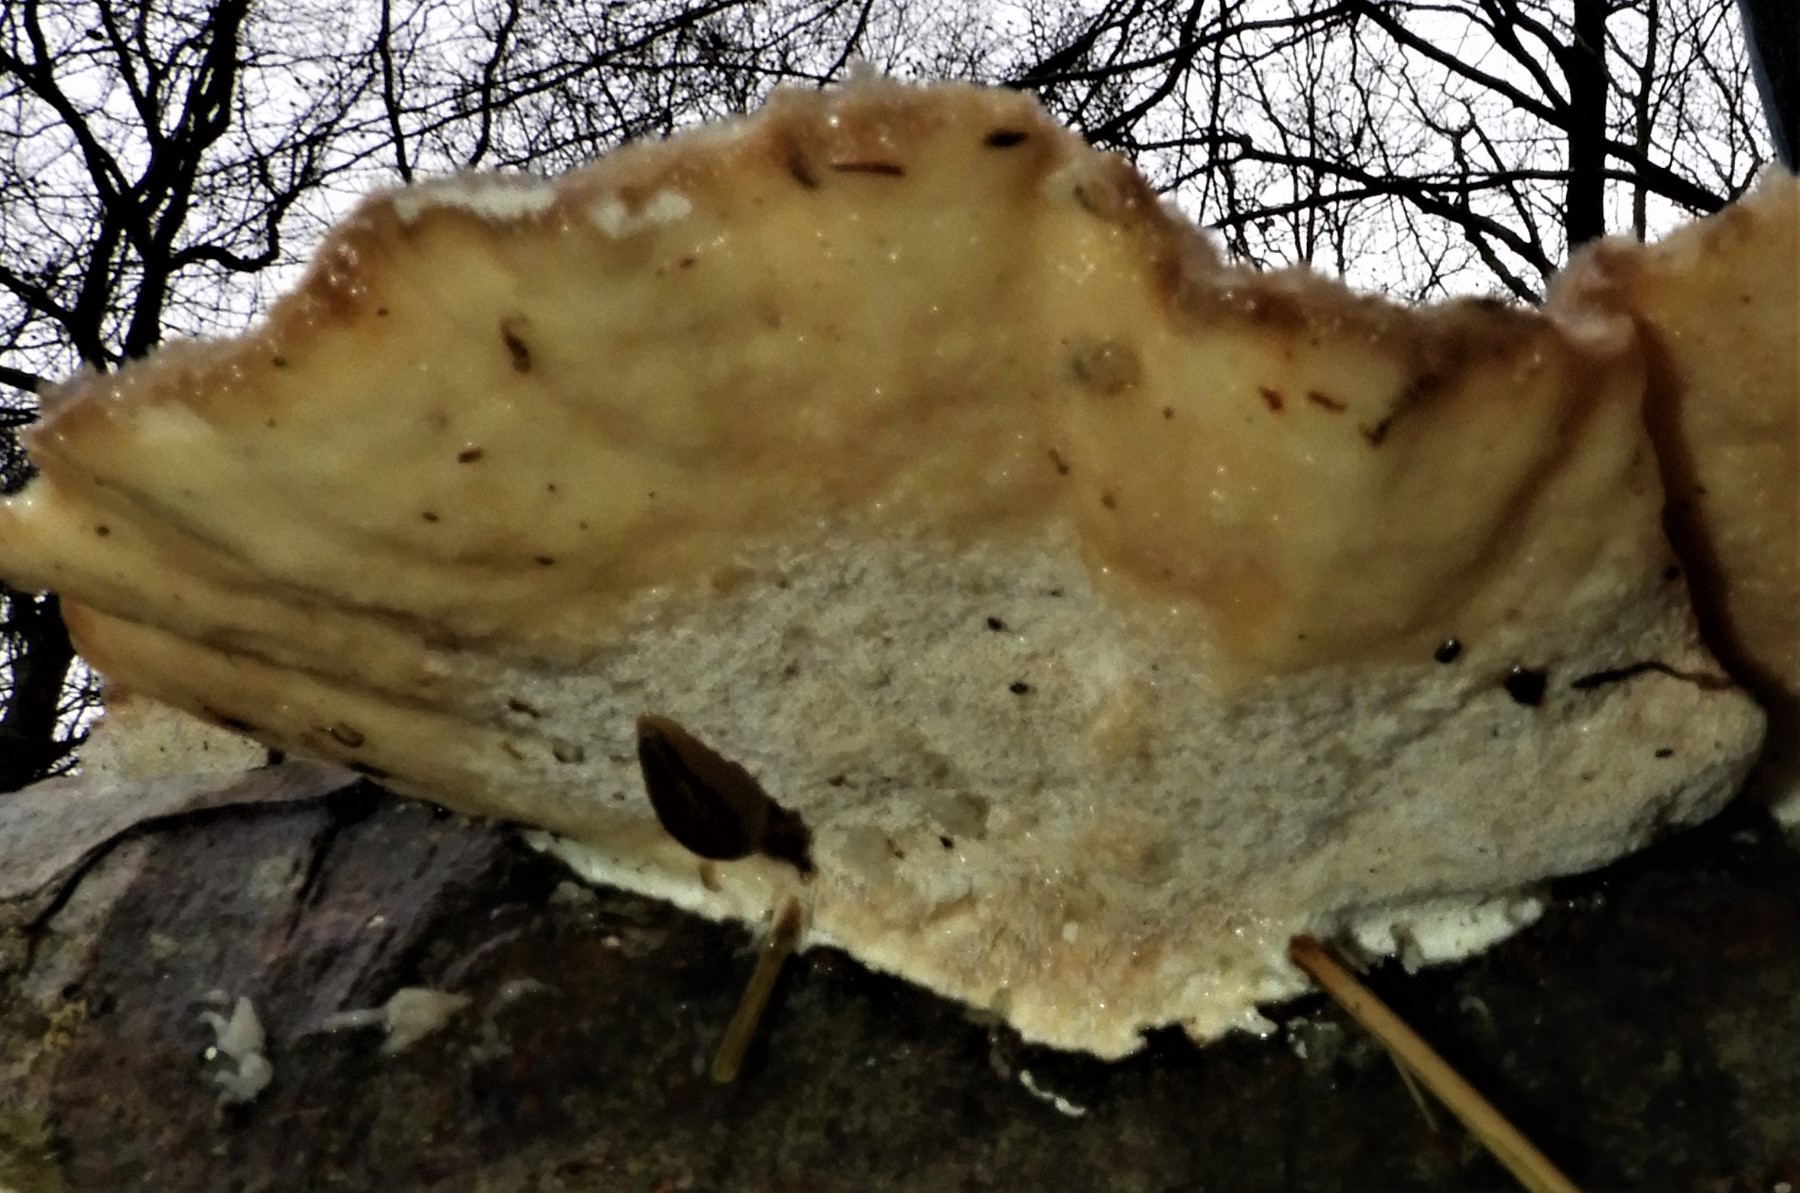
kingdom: Fungi
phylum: Basidiomycota
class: Agaricomycetes
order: Polyporales
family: Polyporaceae
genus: Trametes
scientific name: Trametes hirsuta
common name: håret læderporesvamp
